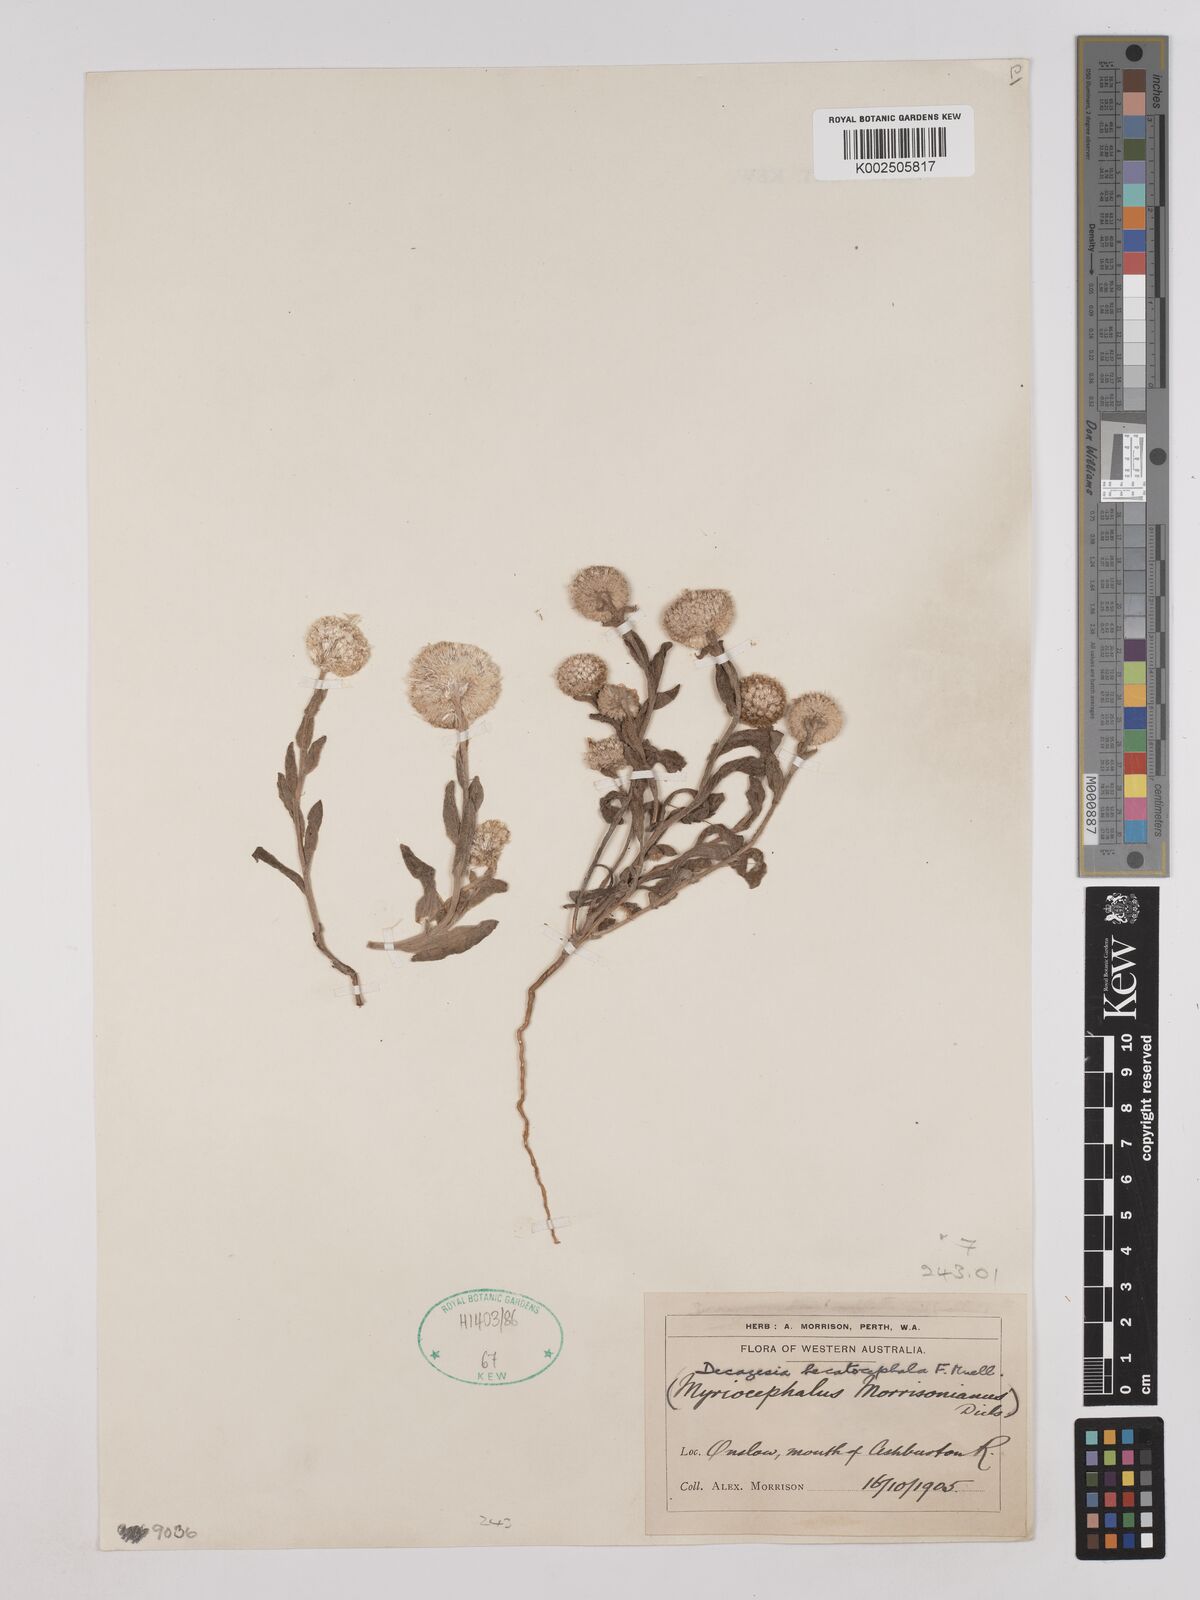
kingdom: Plantae
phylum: Tracheophyta
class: Magnoliopsida
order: Asterales
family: Asteraceae
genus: Decazesia
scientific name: Decazesia hecatocephala
